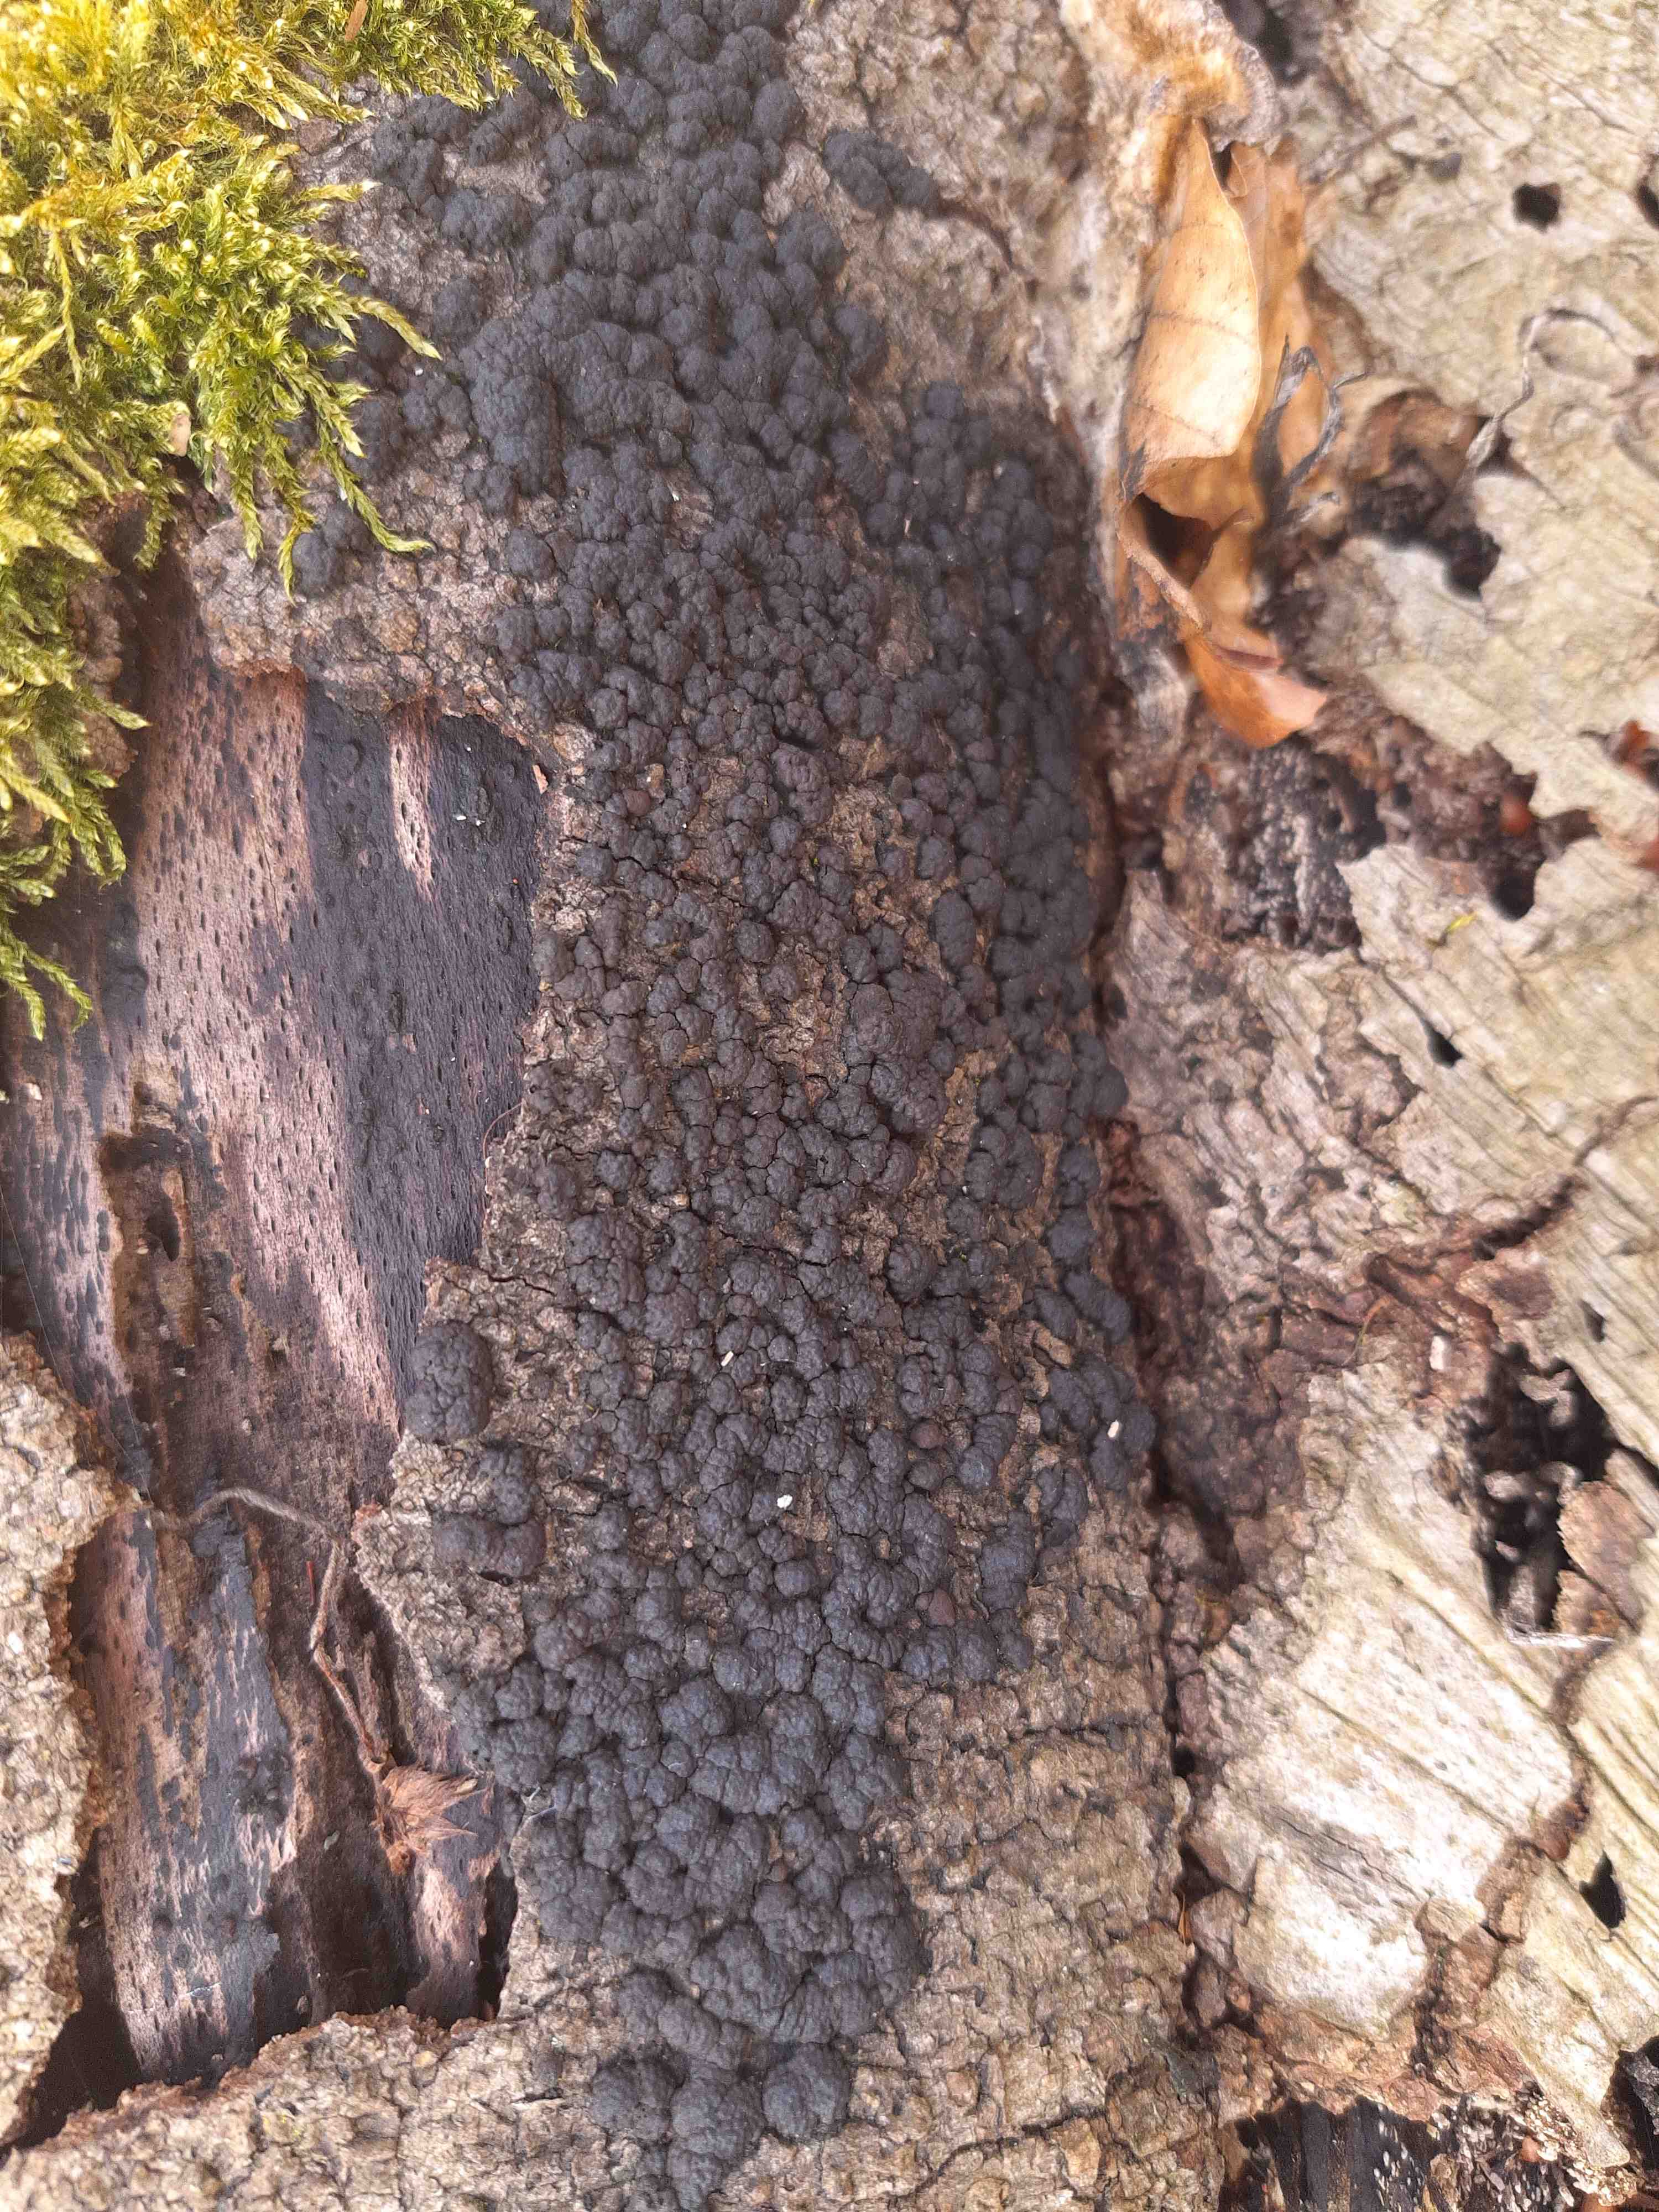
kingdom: Fungi
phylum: Ascomycota
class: Sordariomycetes
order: Xylariales
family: Hypoxylaceae
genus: Jackrogersella
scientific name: Jackrogersella cohaerens
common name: sammenflydende kulbær
